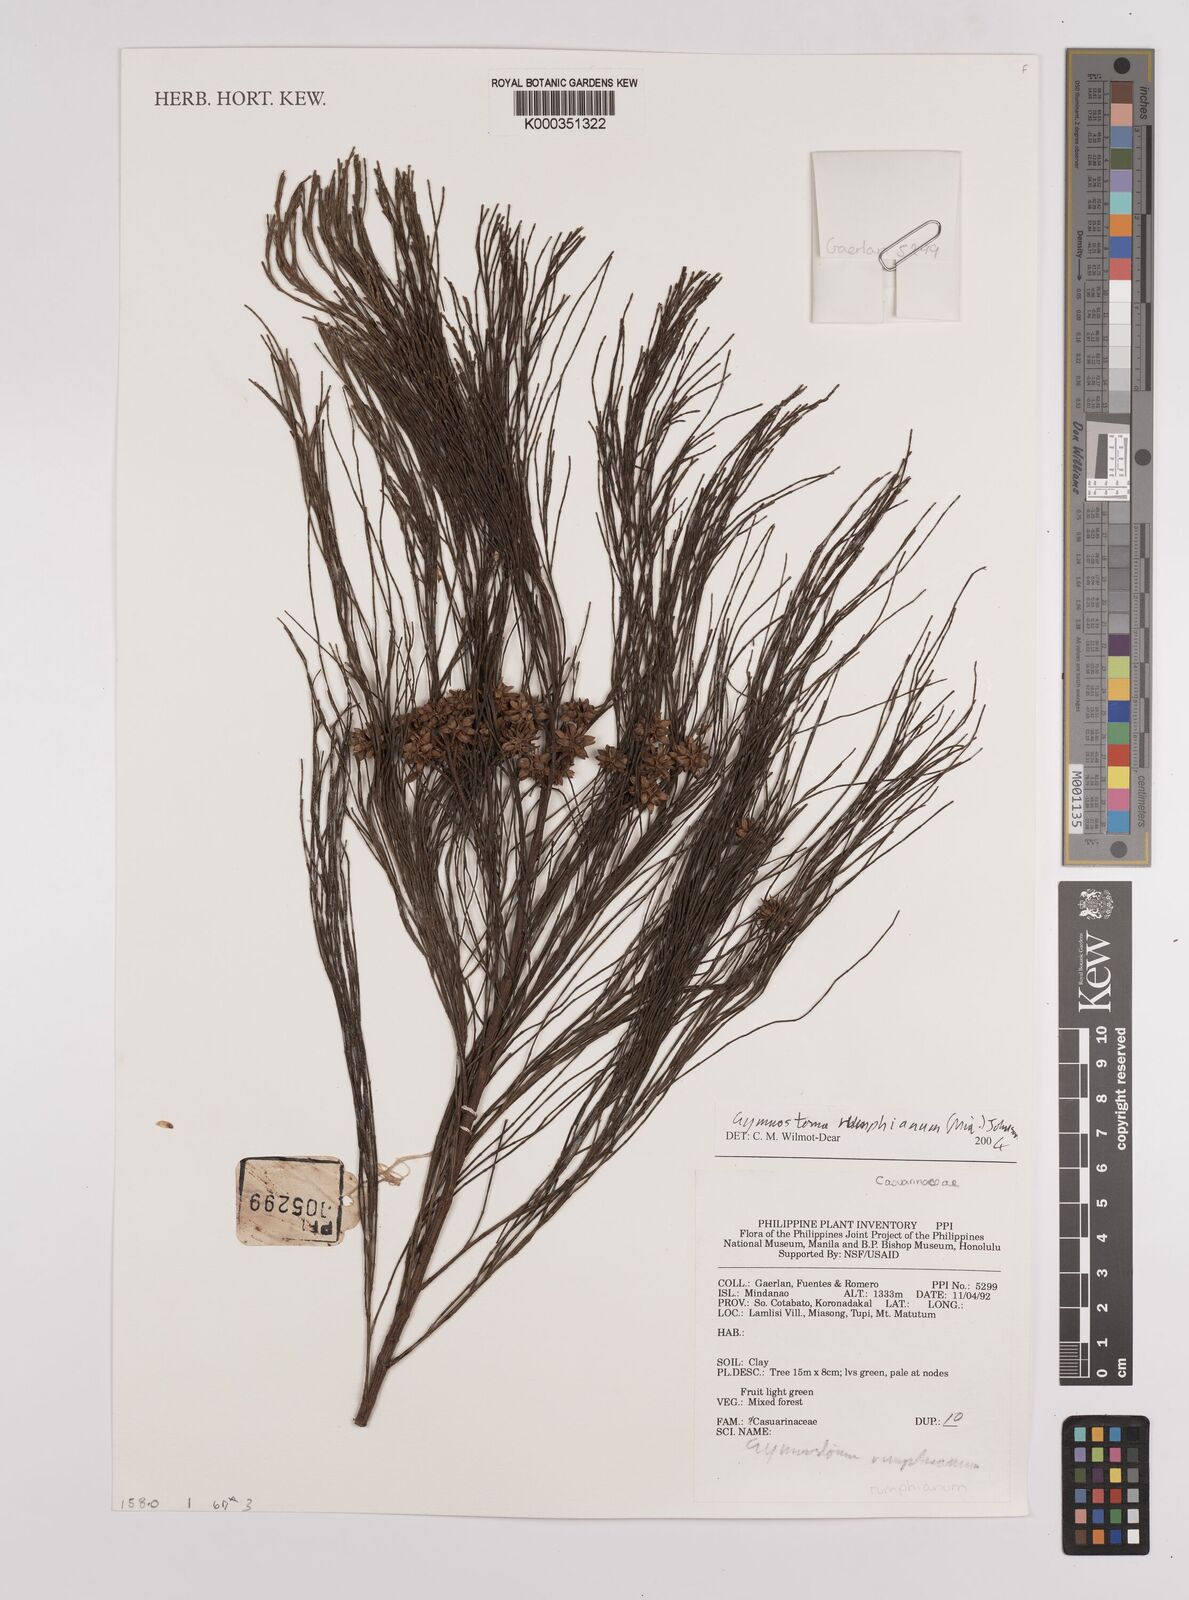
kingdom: Plantae
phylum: Tracheophyta
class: Magnoliopsida
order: Fagales
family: Casuarinaceae
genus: Gymnostoma
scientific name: Gymnostoma rumphianum
